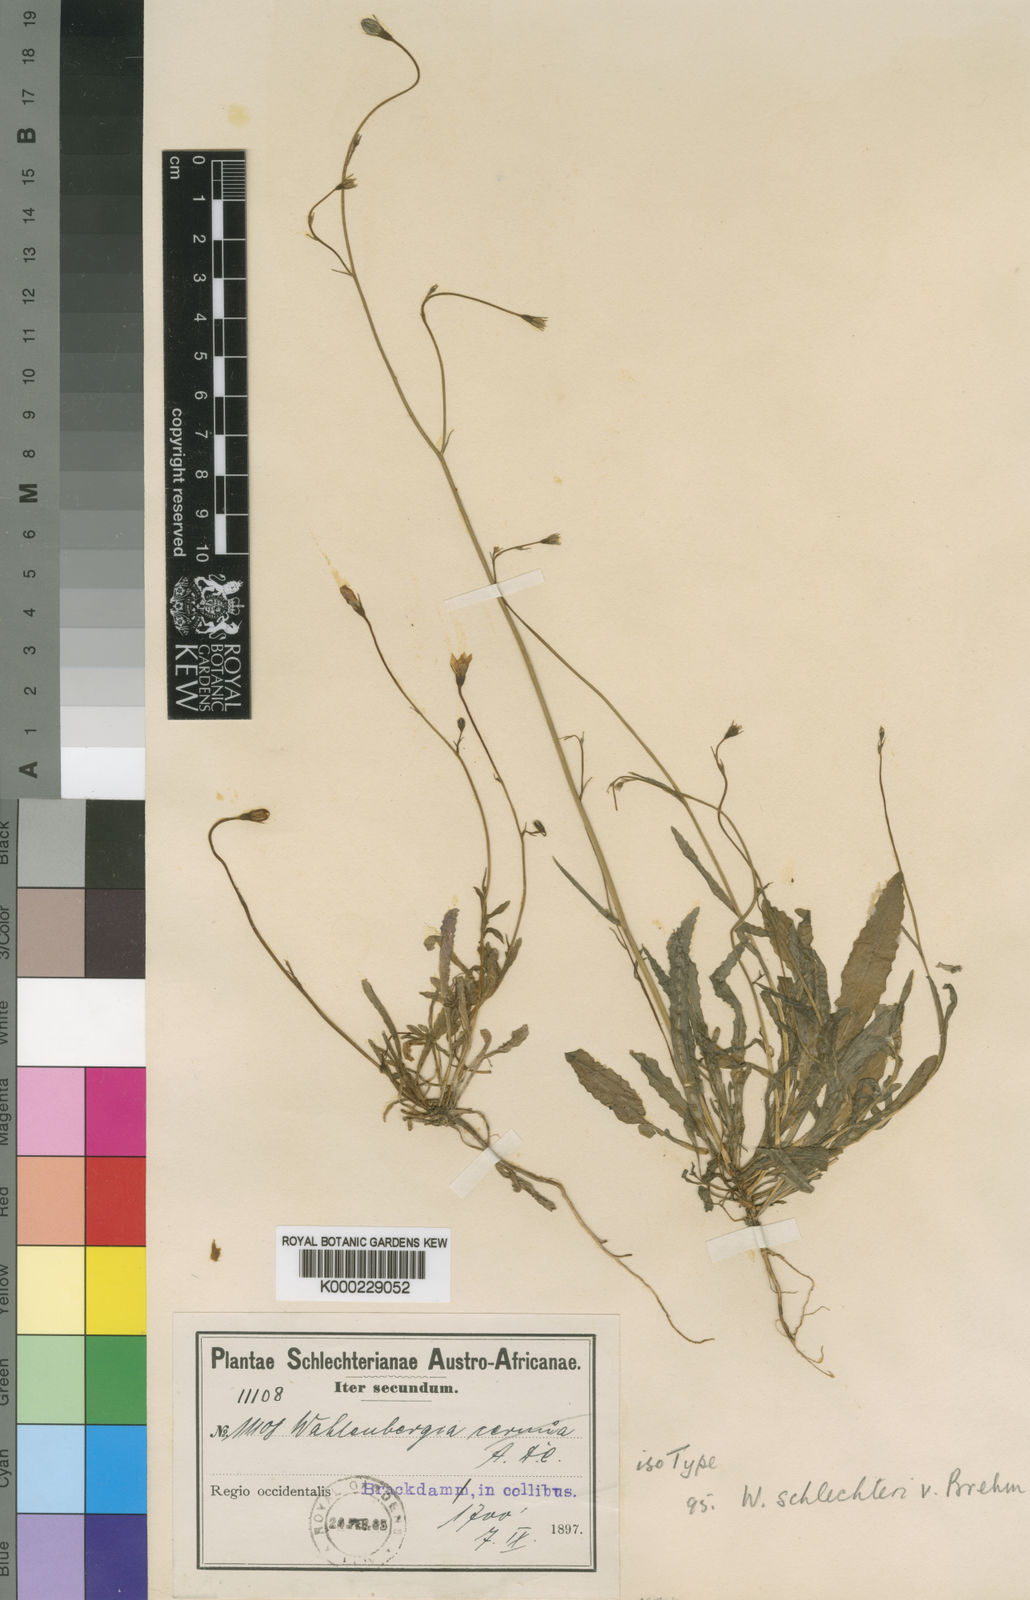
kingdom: Plantae
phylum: Tracheophyta
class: Magnoliopsida
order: Asterales
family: Campanulaceae
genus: Wahlenbergia
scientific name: Wahlenbergia schlechteri
